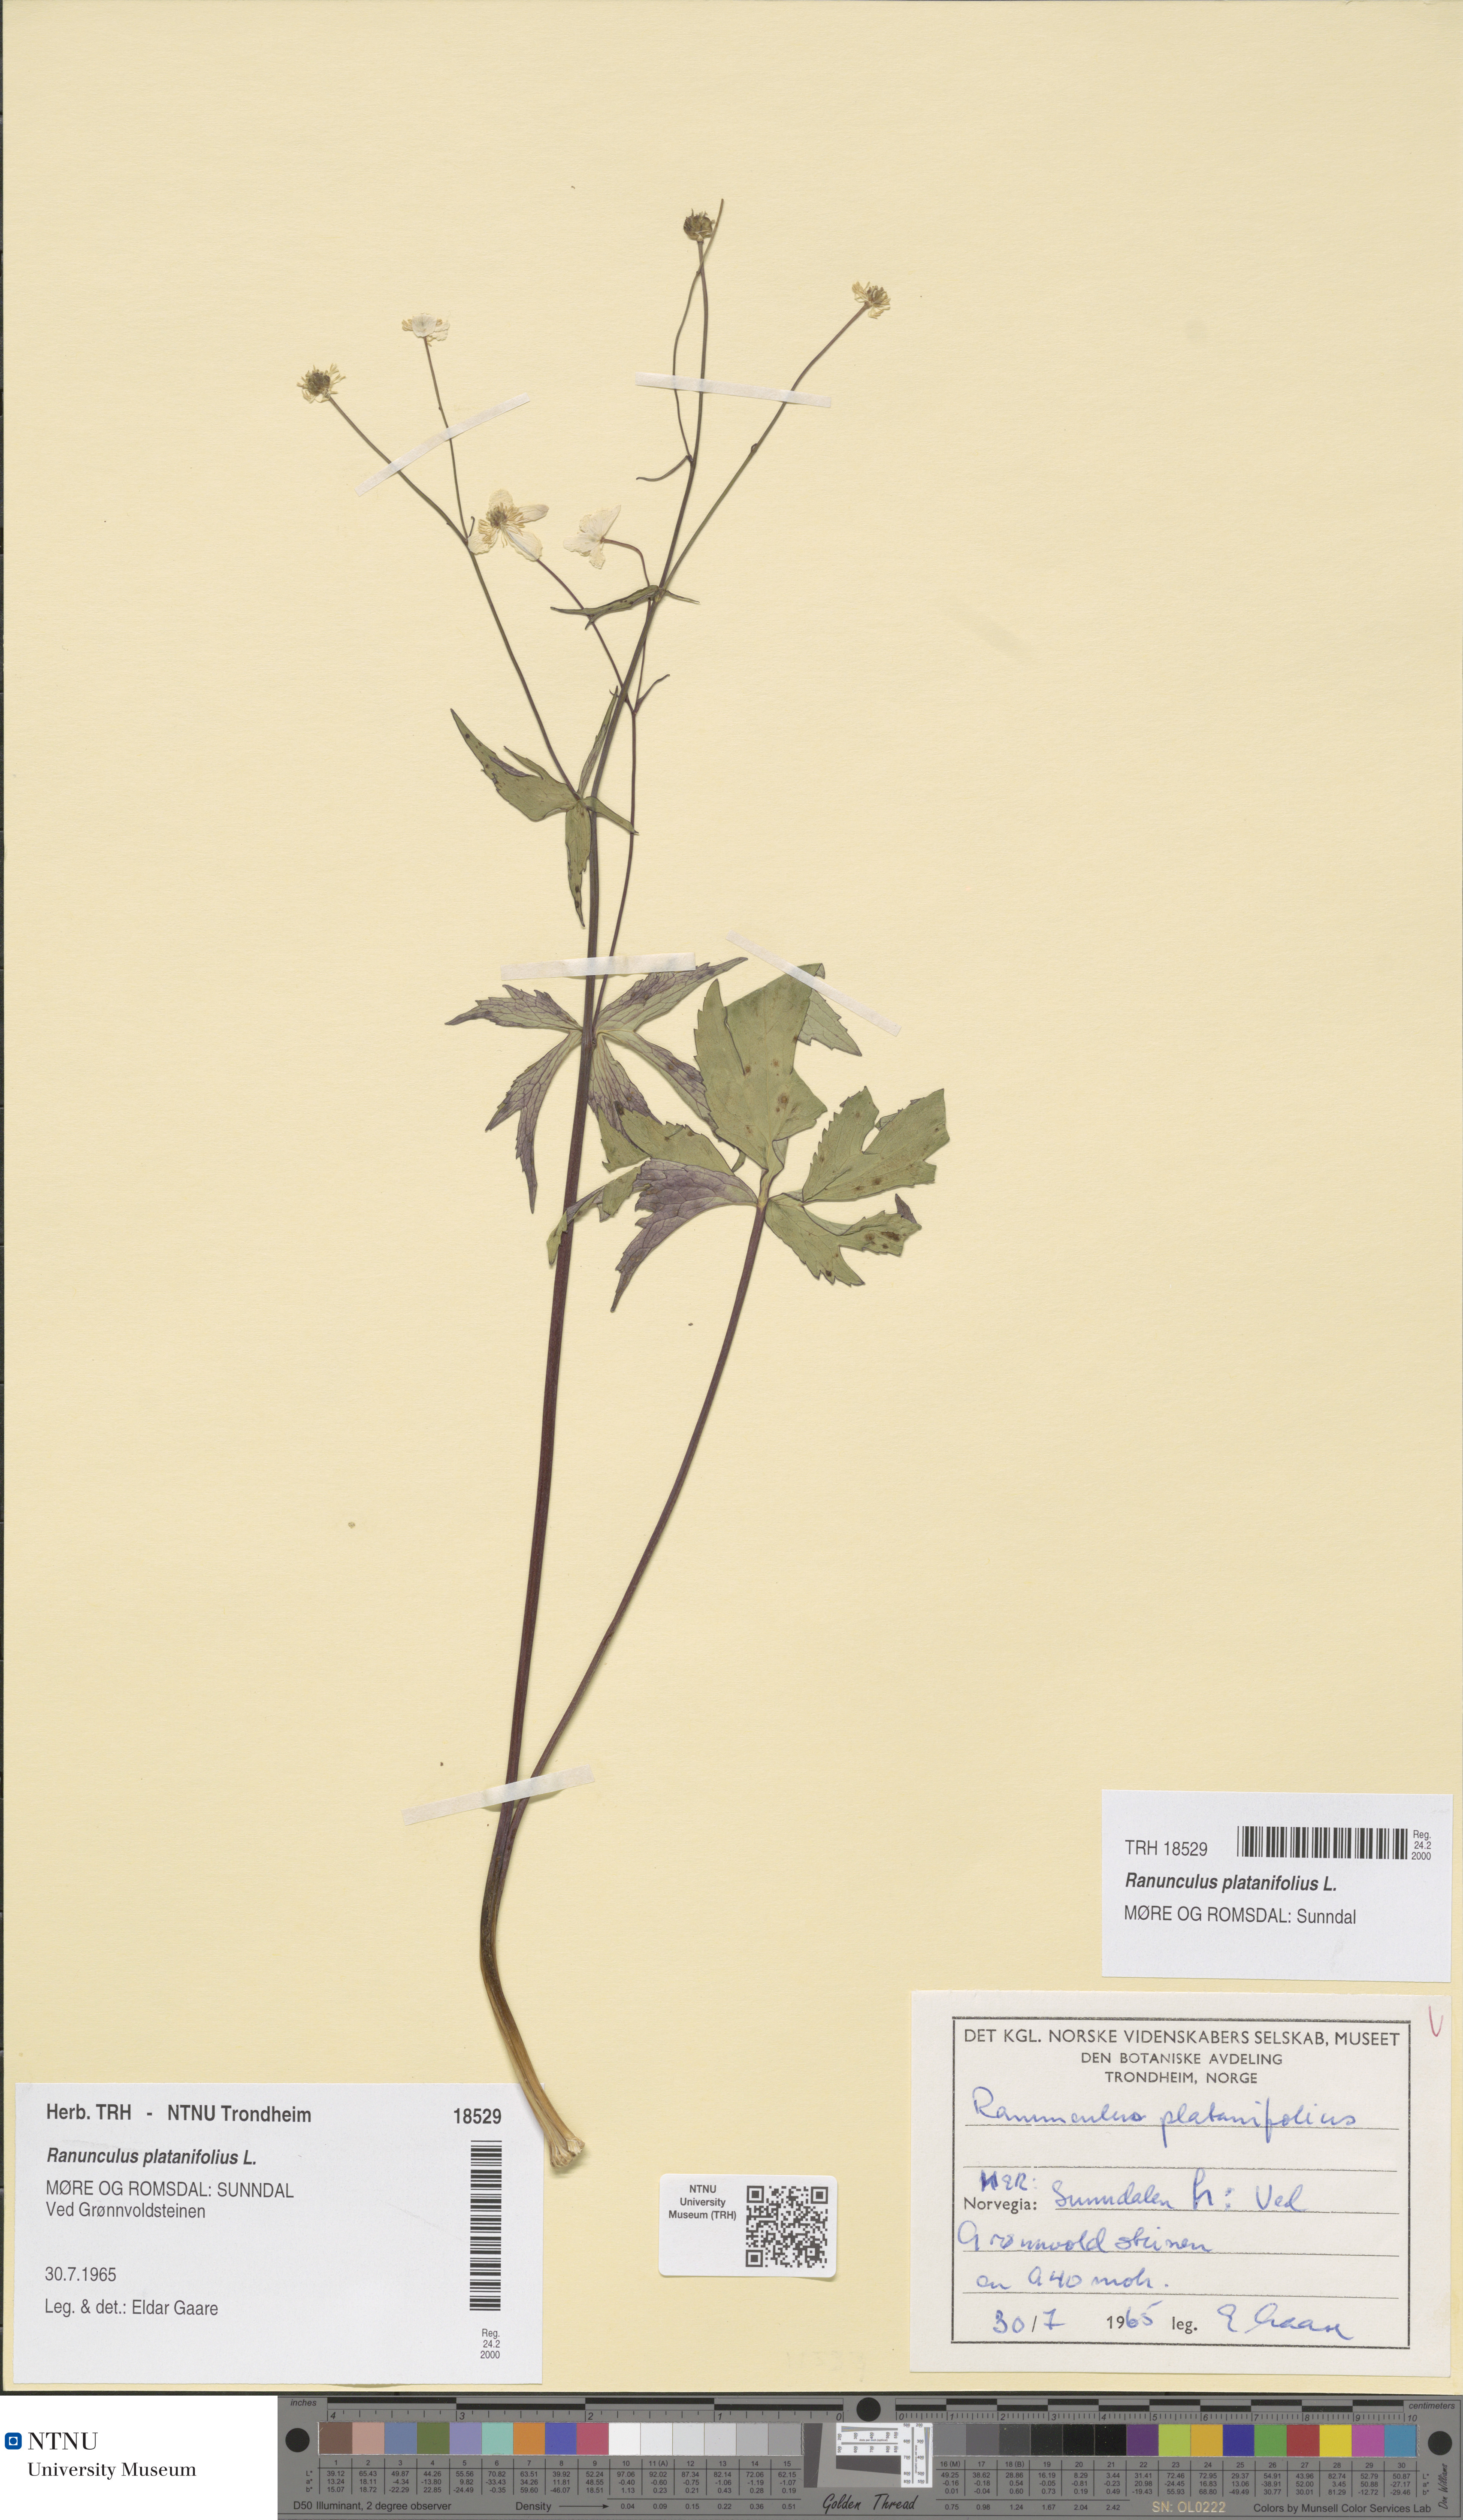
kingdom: Plantae
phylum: Tracheophyta
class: Magnoliopsida
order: Ranunculales
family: Ranunculaceae
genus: Ranunculus
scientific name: Ranunculus platanifolius
